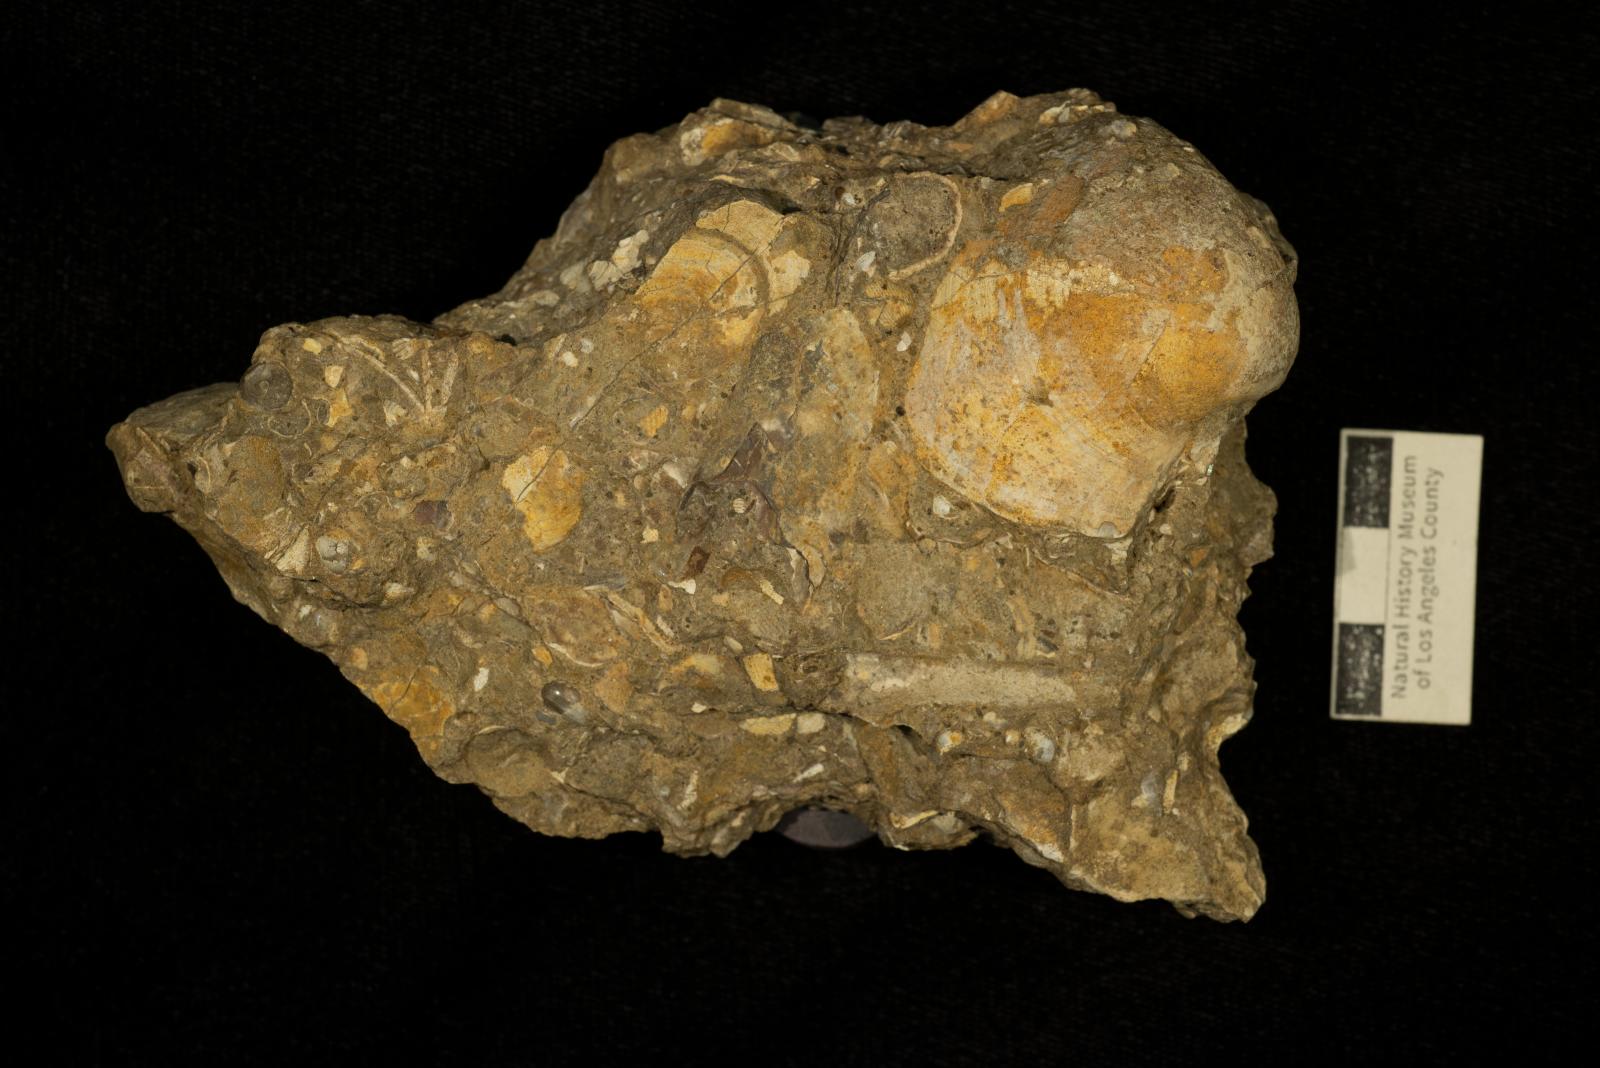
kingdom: Animalia
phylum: Mollusca
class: Bivalvia
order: Arcida
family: Cucullaeidae
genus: Cucullaea
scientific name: Cucullaea cordiformis
